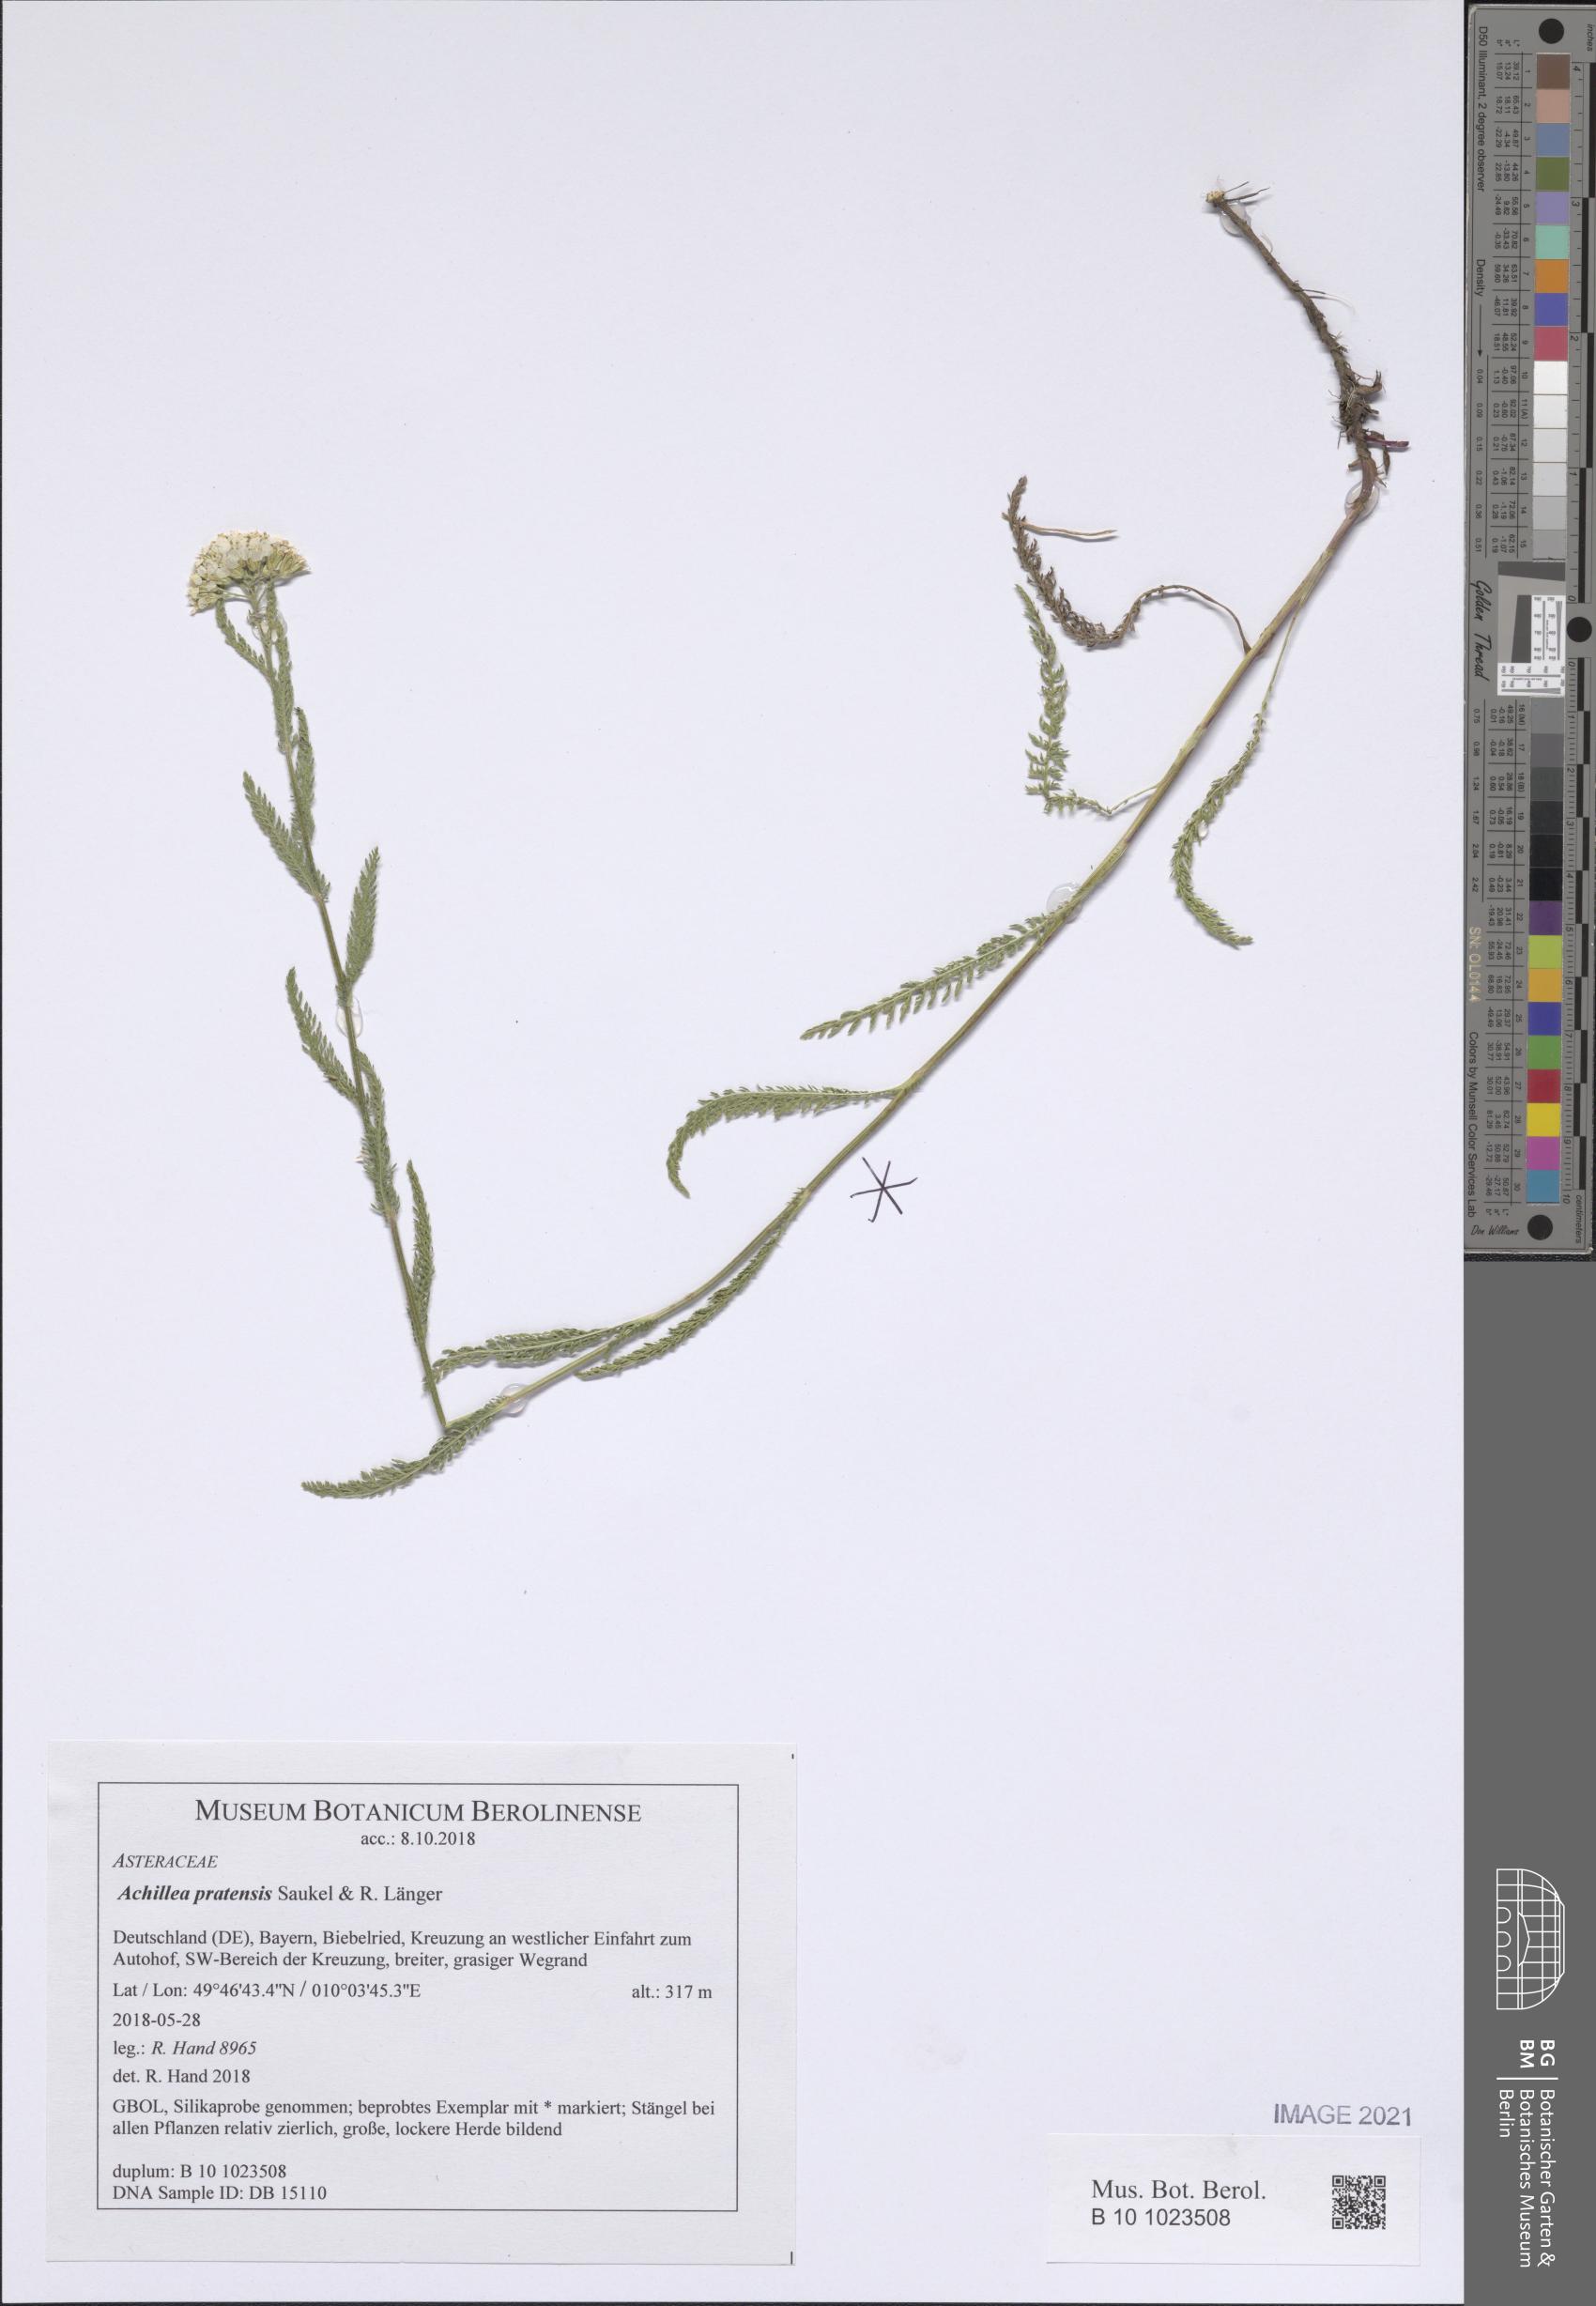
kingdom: Plantae
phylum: Tracheophyta
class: Magnoliopsida
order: Asterales
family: Asteraceae
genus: Achillea
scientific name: Achillea pratensis
